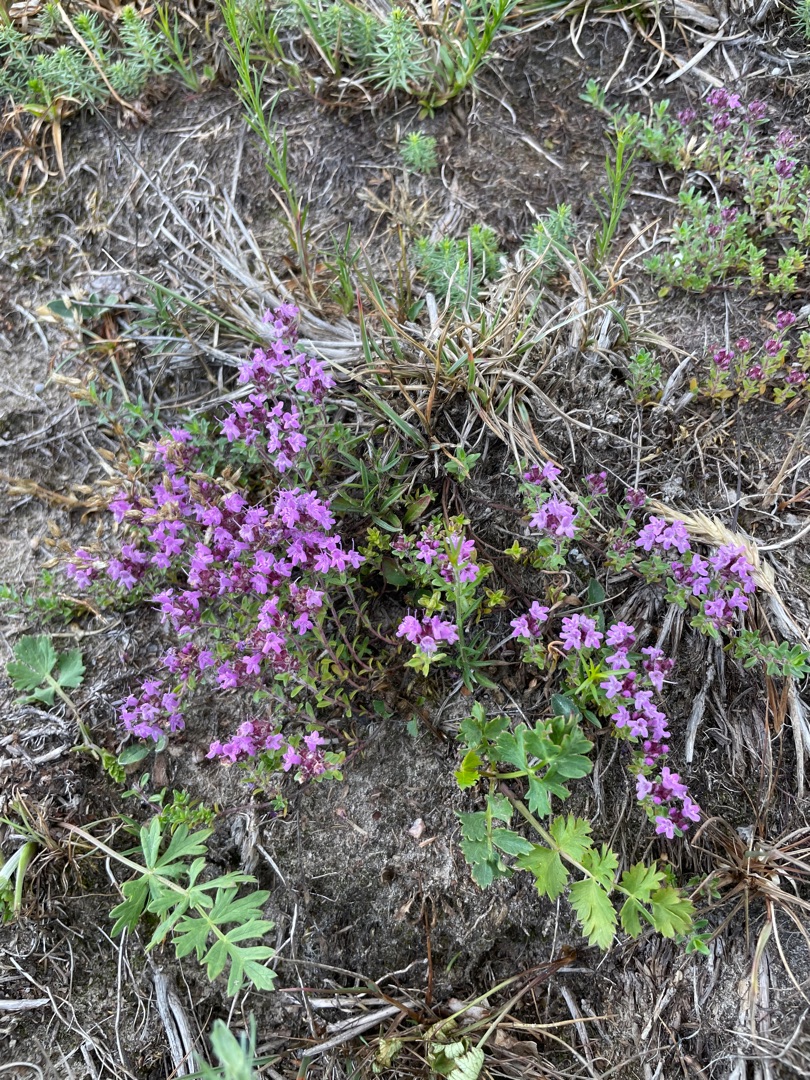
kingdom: Plantae
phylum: Tracheophyta
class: Magnoliopsida
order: Lamiales
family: Lamiaceae
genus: Thymus
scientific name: Thymus serpyllum
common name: Smalbladet timian
